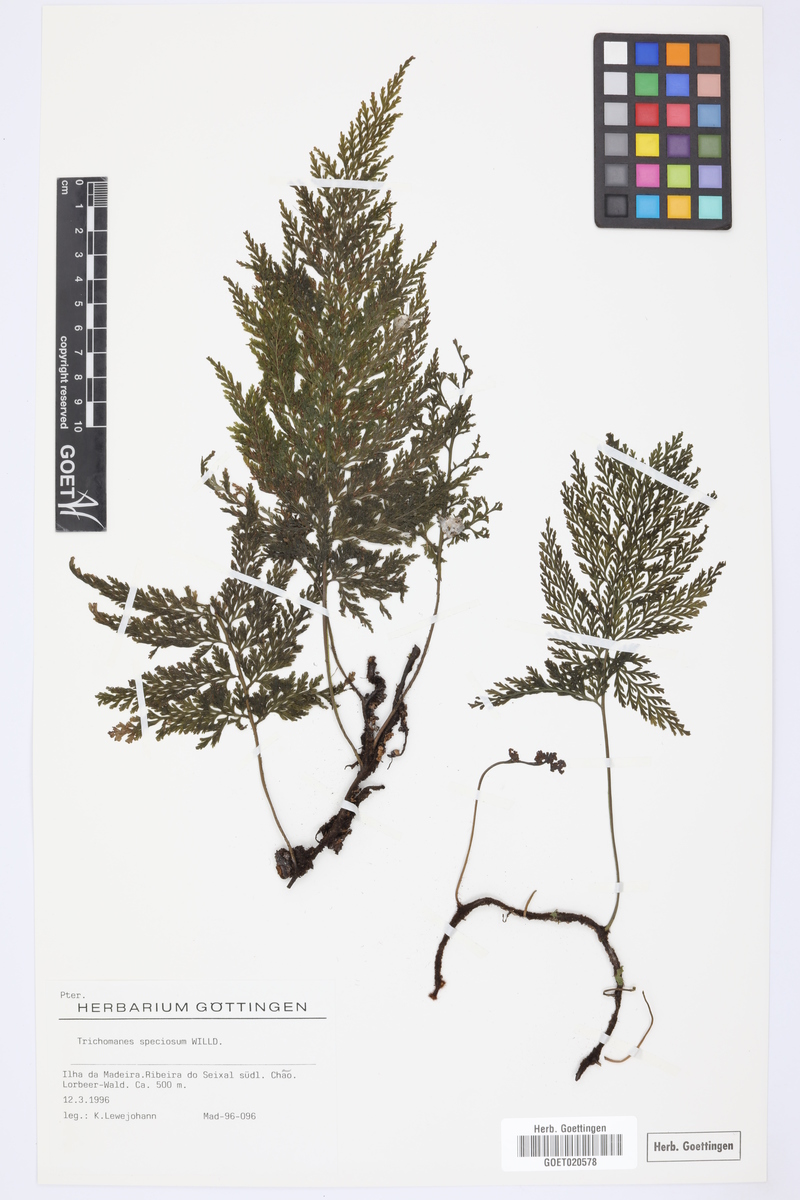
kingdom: Plantae
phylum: Tracheophyta
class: Polypodiopsida
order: Hymenophyllales
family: Hymenophyllaceae
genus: Vandenboschia
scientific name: Vandenboschia speciosa
